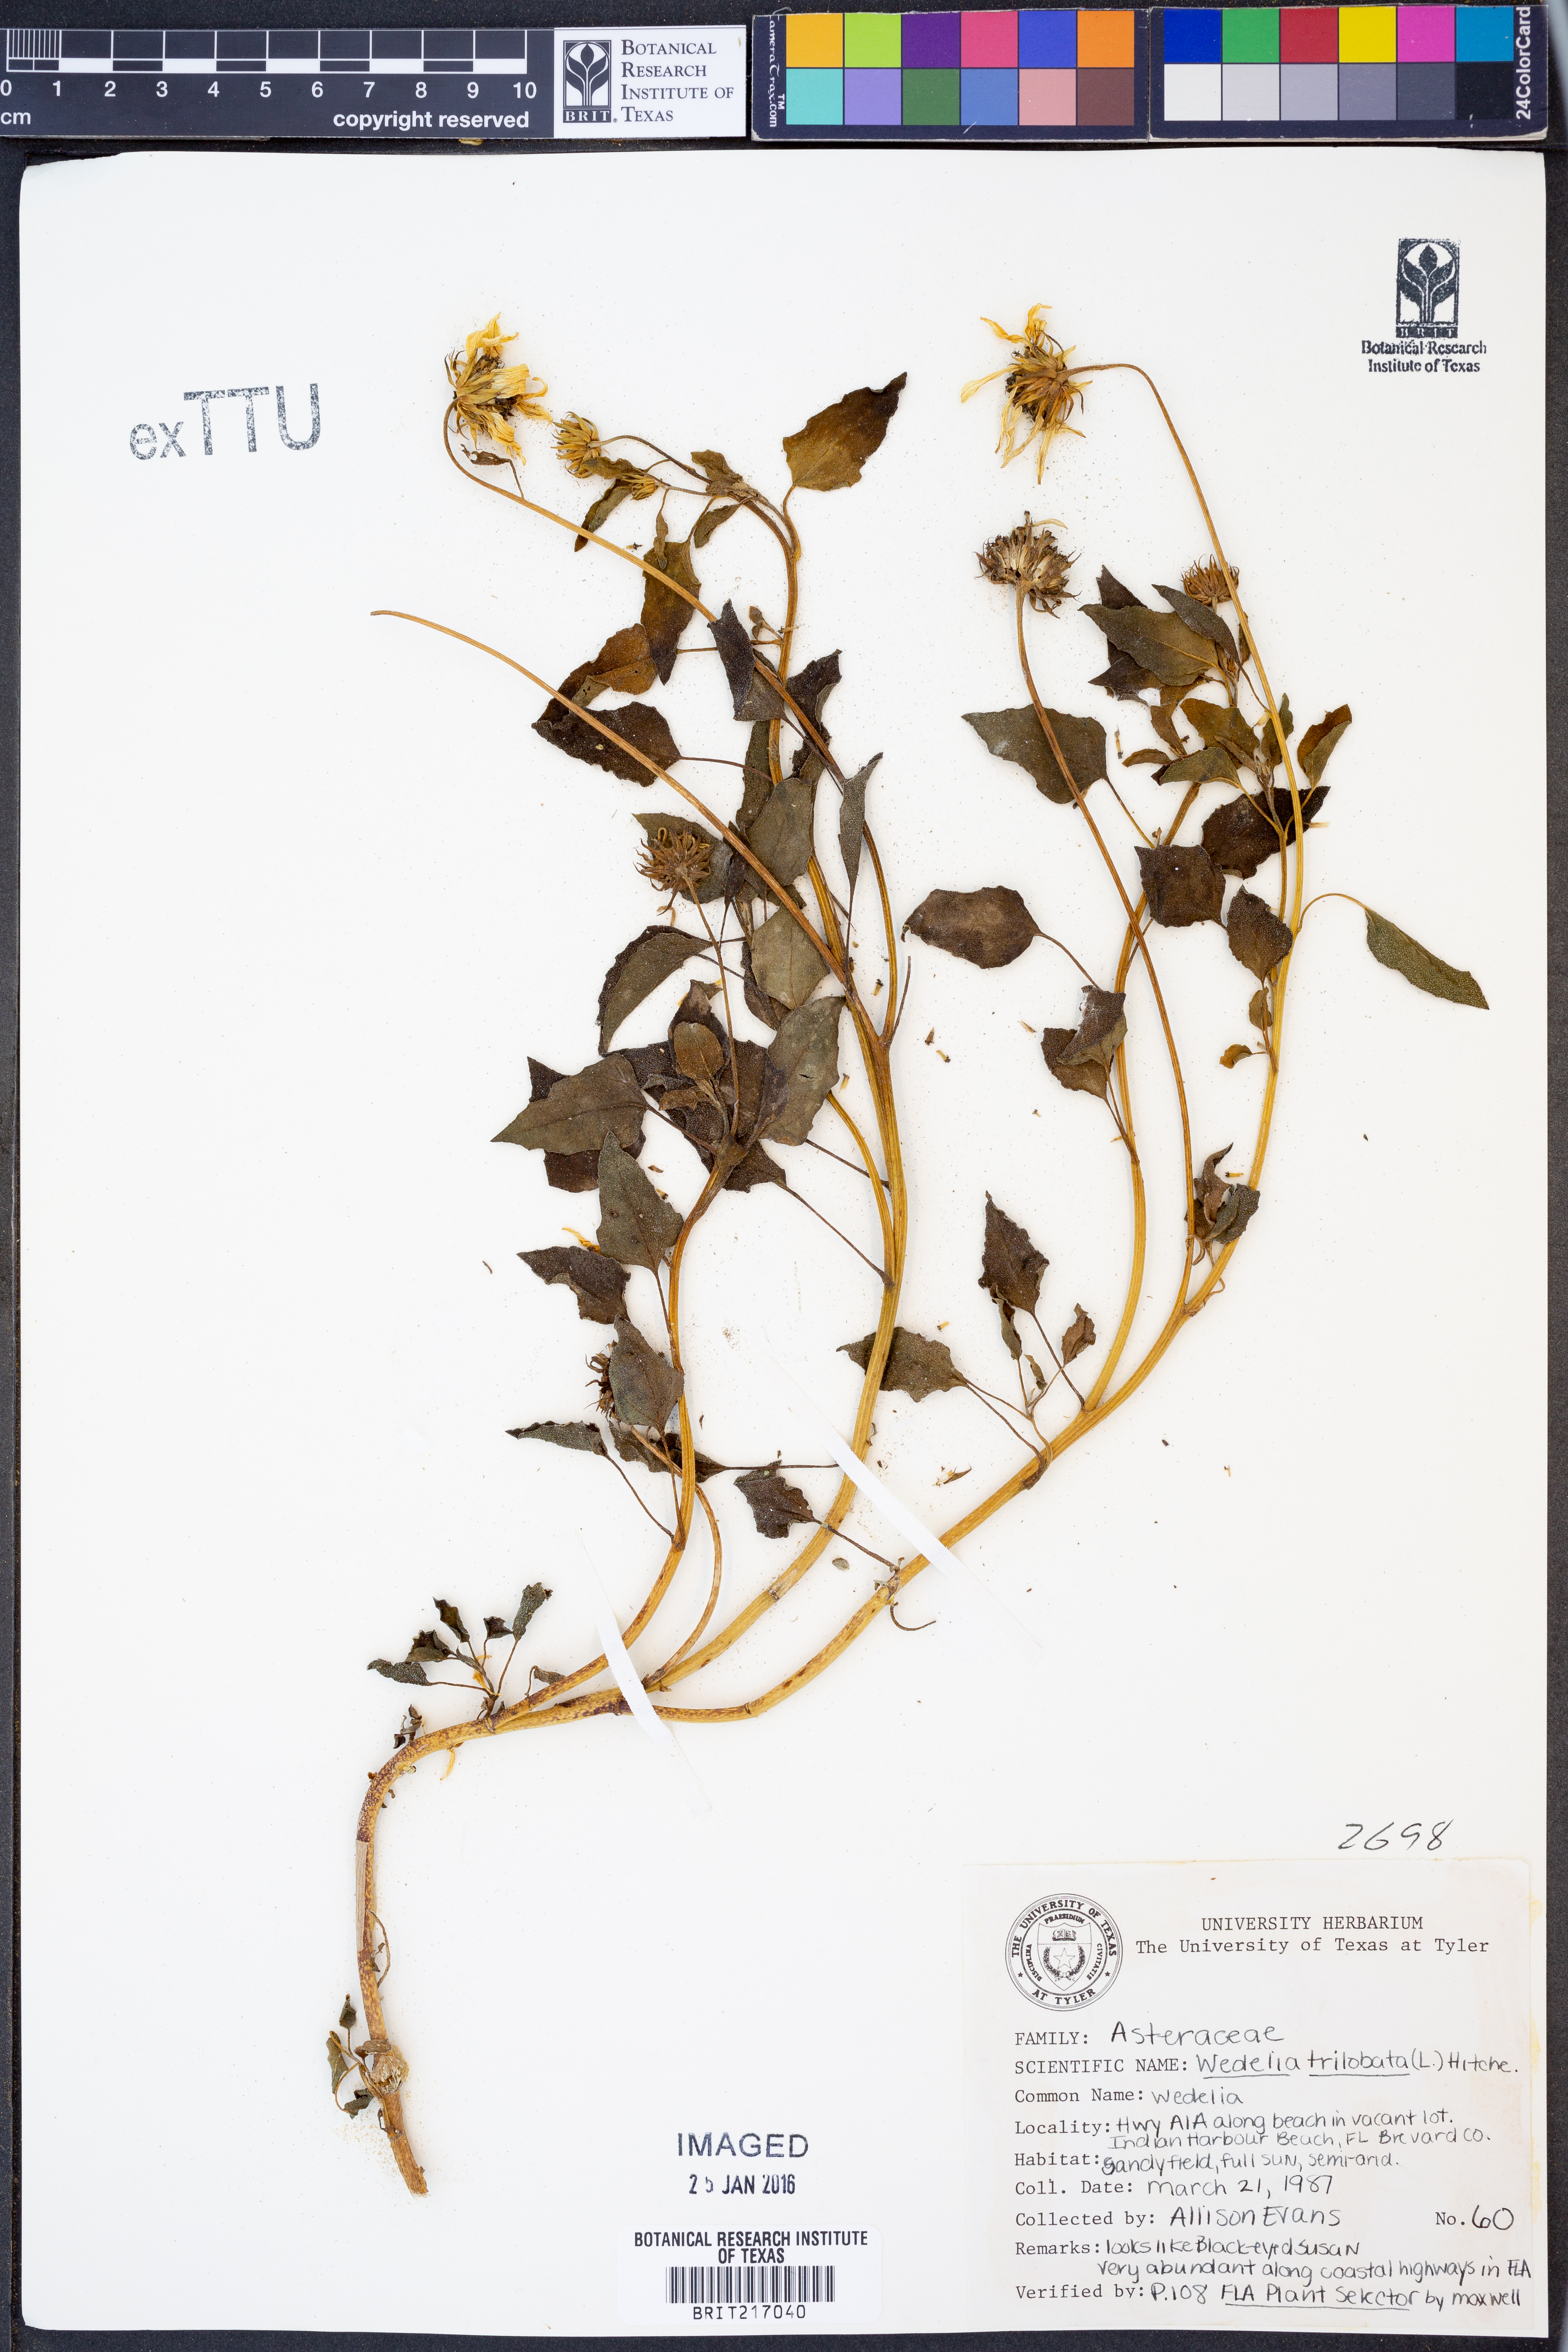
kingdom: Plantae
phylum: Tracheophyta
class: Magnoliopsida
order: Asterales
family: Asteraceae
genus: Sphagneticola
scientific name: Sphagneticola trilobata
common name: Bay biscayne creeping-oxeye
